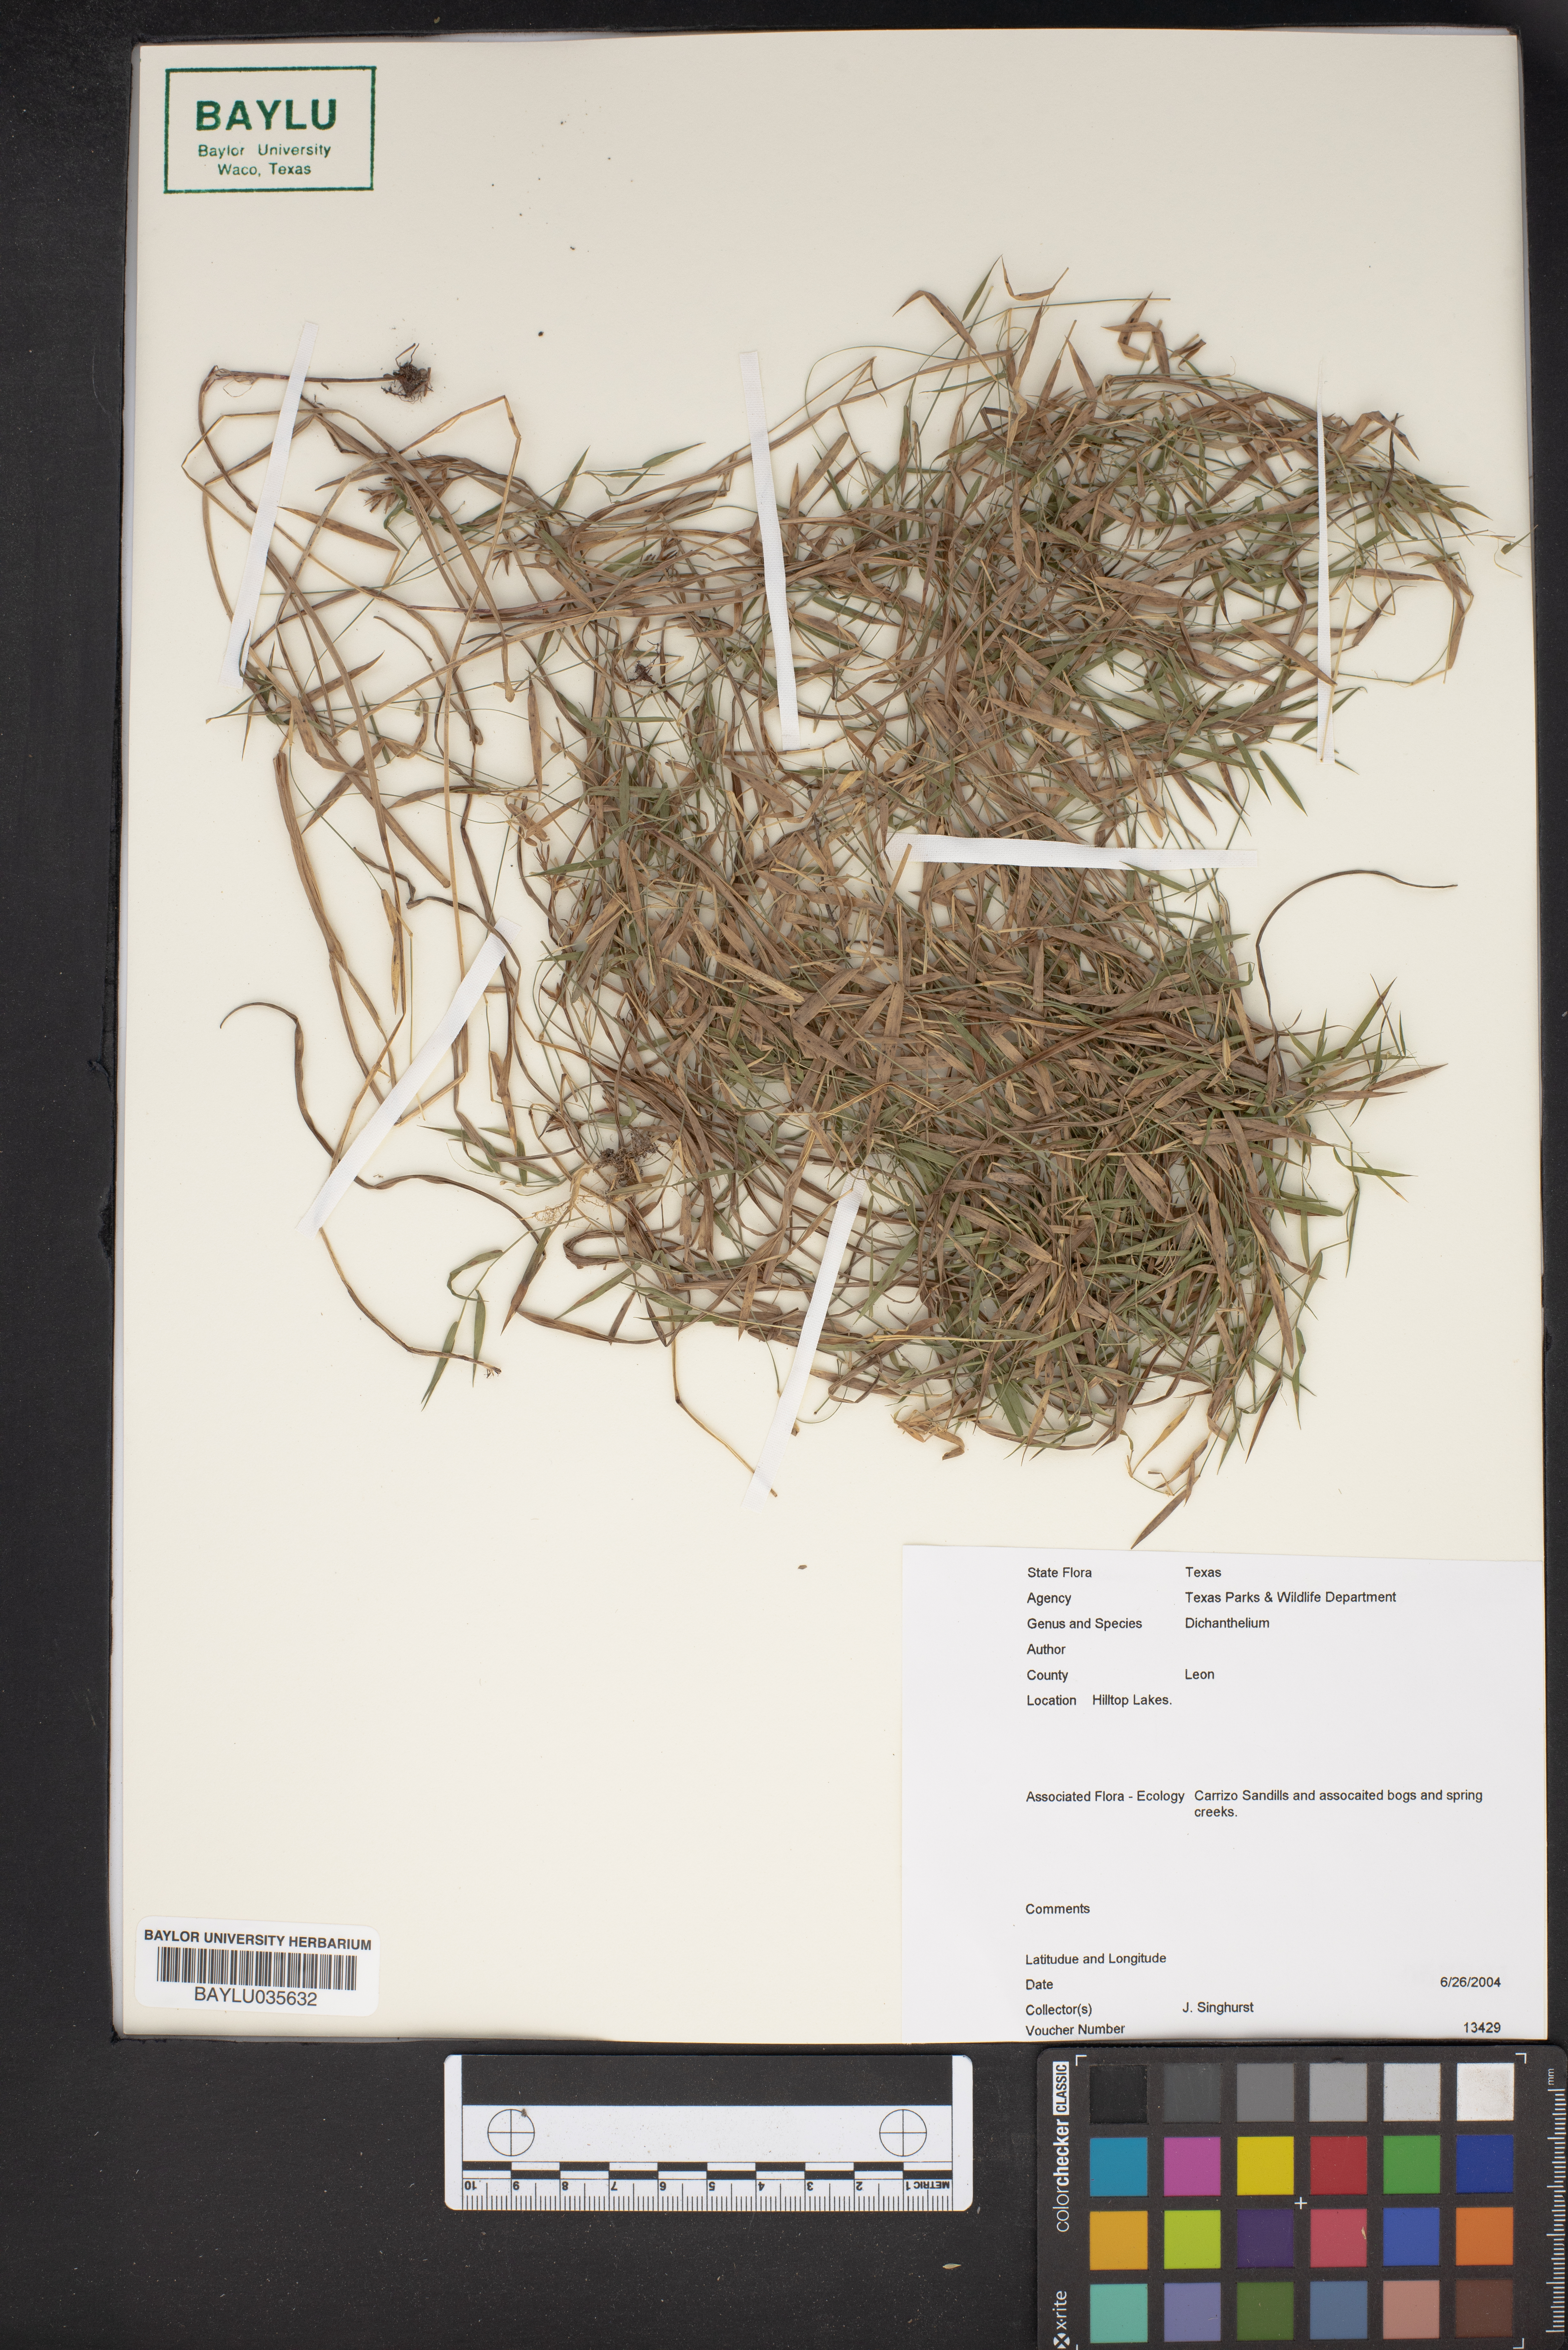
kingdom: Plantae
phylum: Tracheophyta
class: Liliopsida
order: Poales
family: Poaceae
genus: Dichanthelium
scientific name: Dichanthelium
